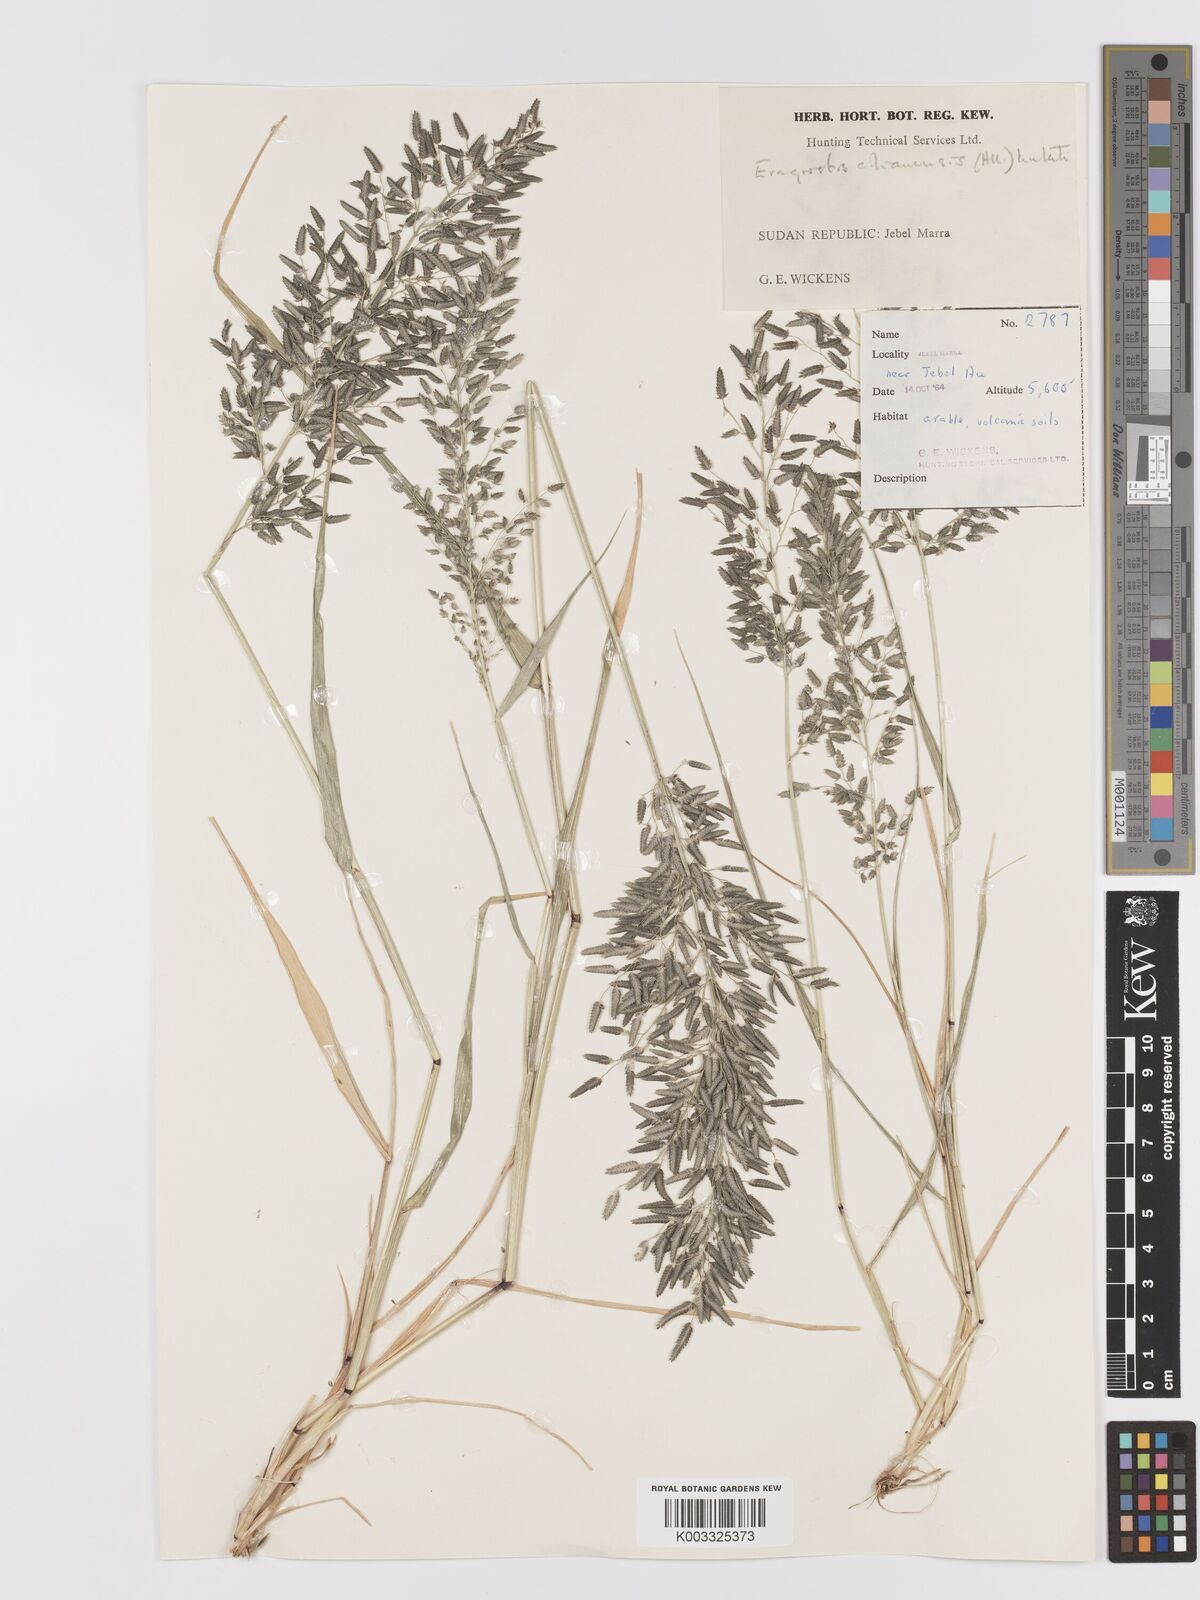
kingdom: Plantae
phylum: Tracheophyta
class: Liliopsida
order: Poales
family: Poaceae
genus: Eragrostis
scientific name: Eragrostis cilianensis
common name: Stinkgrass
